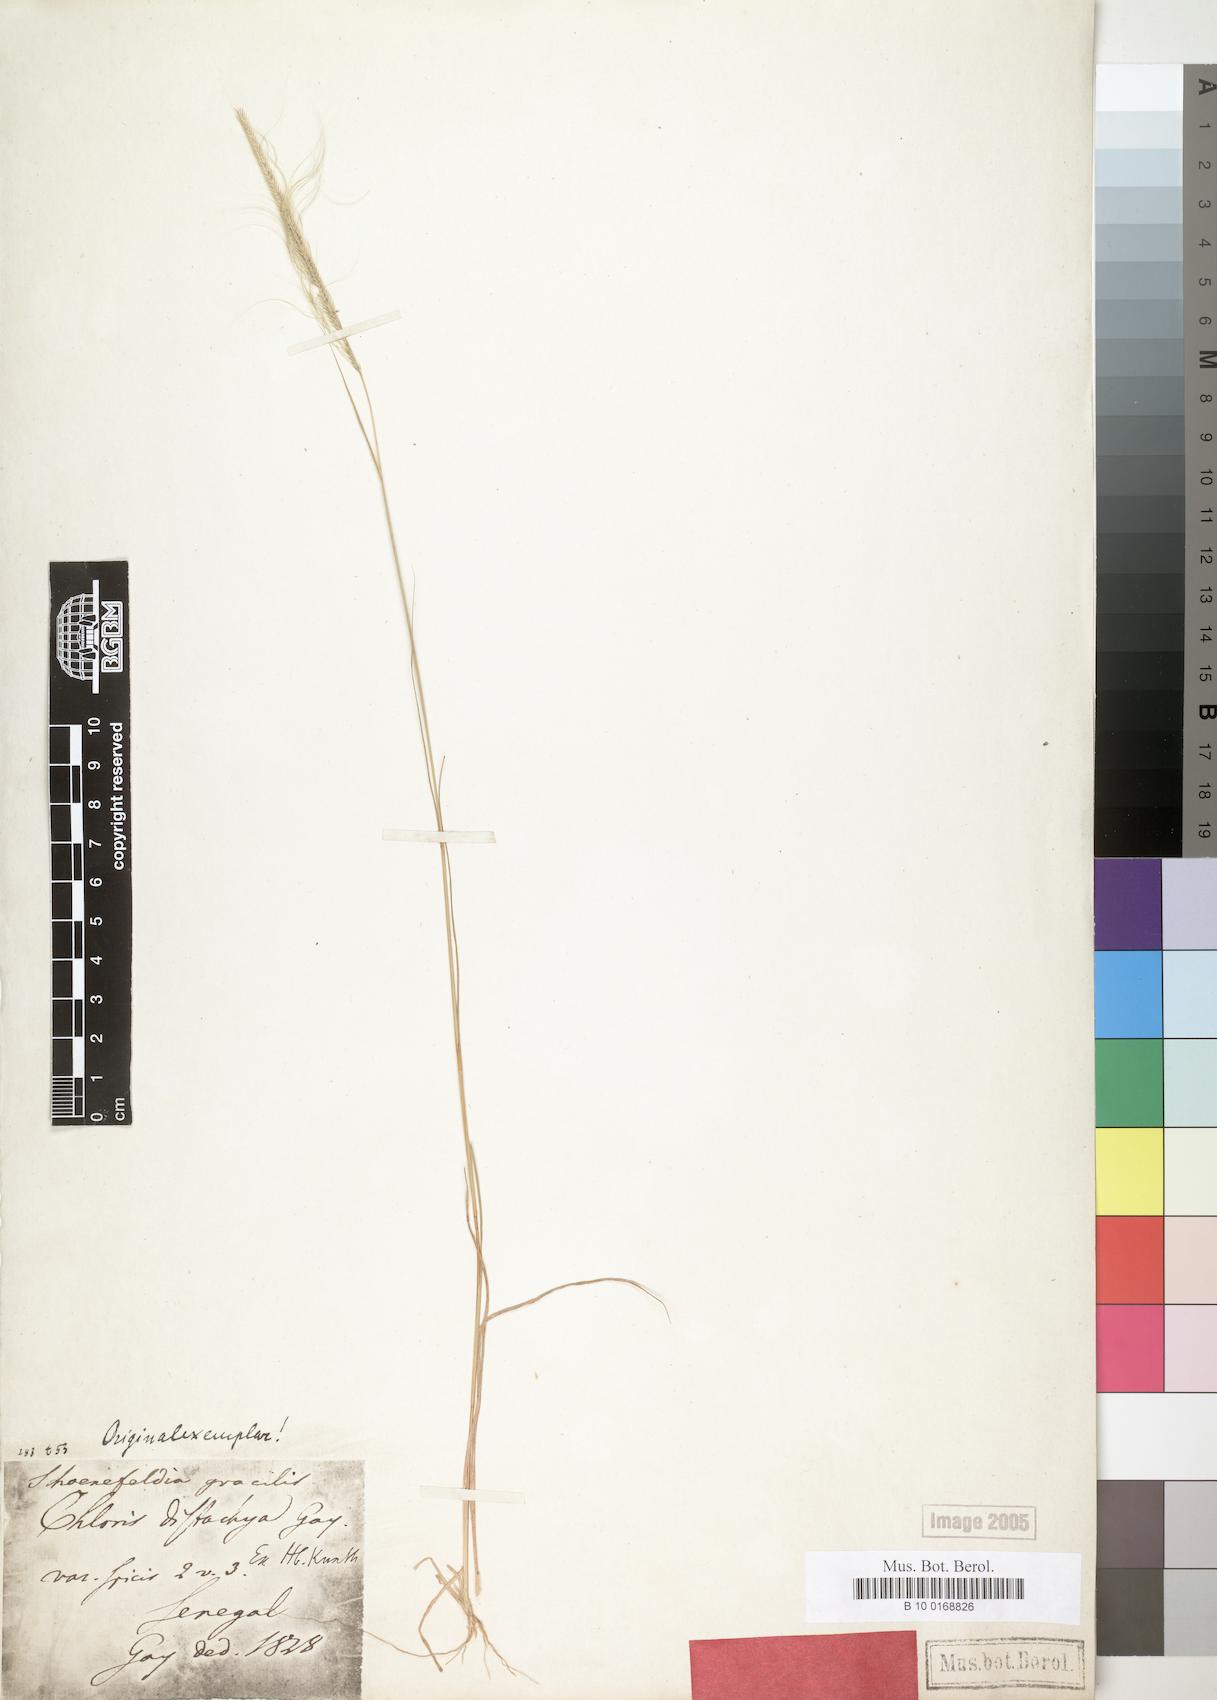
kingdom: Plantae
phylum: Tracheophyta
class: Liliopsida
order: Poales
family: Poaceae
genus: Schoenefeldia
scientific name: Schoenefeldia gracilis
